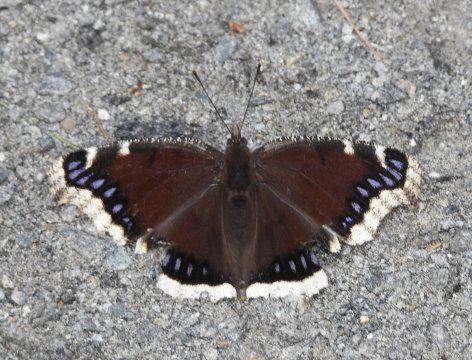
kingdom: Animalia
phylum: Arthropoda
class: Insecta
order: Lepidoptera
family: Nymphalidae
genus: Nymphalis
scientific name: Nymphalis antiopa
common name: Mourning Cloak
